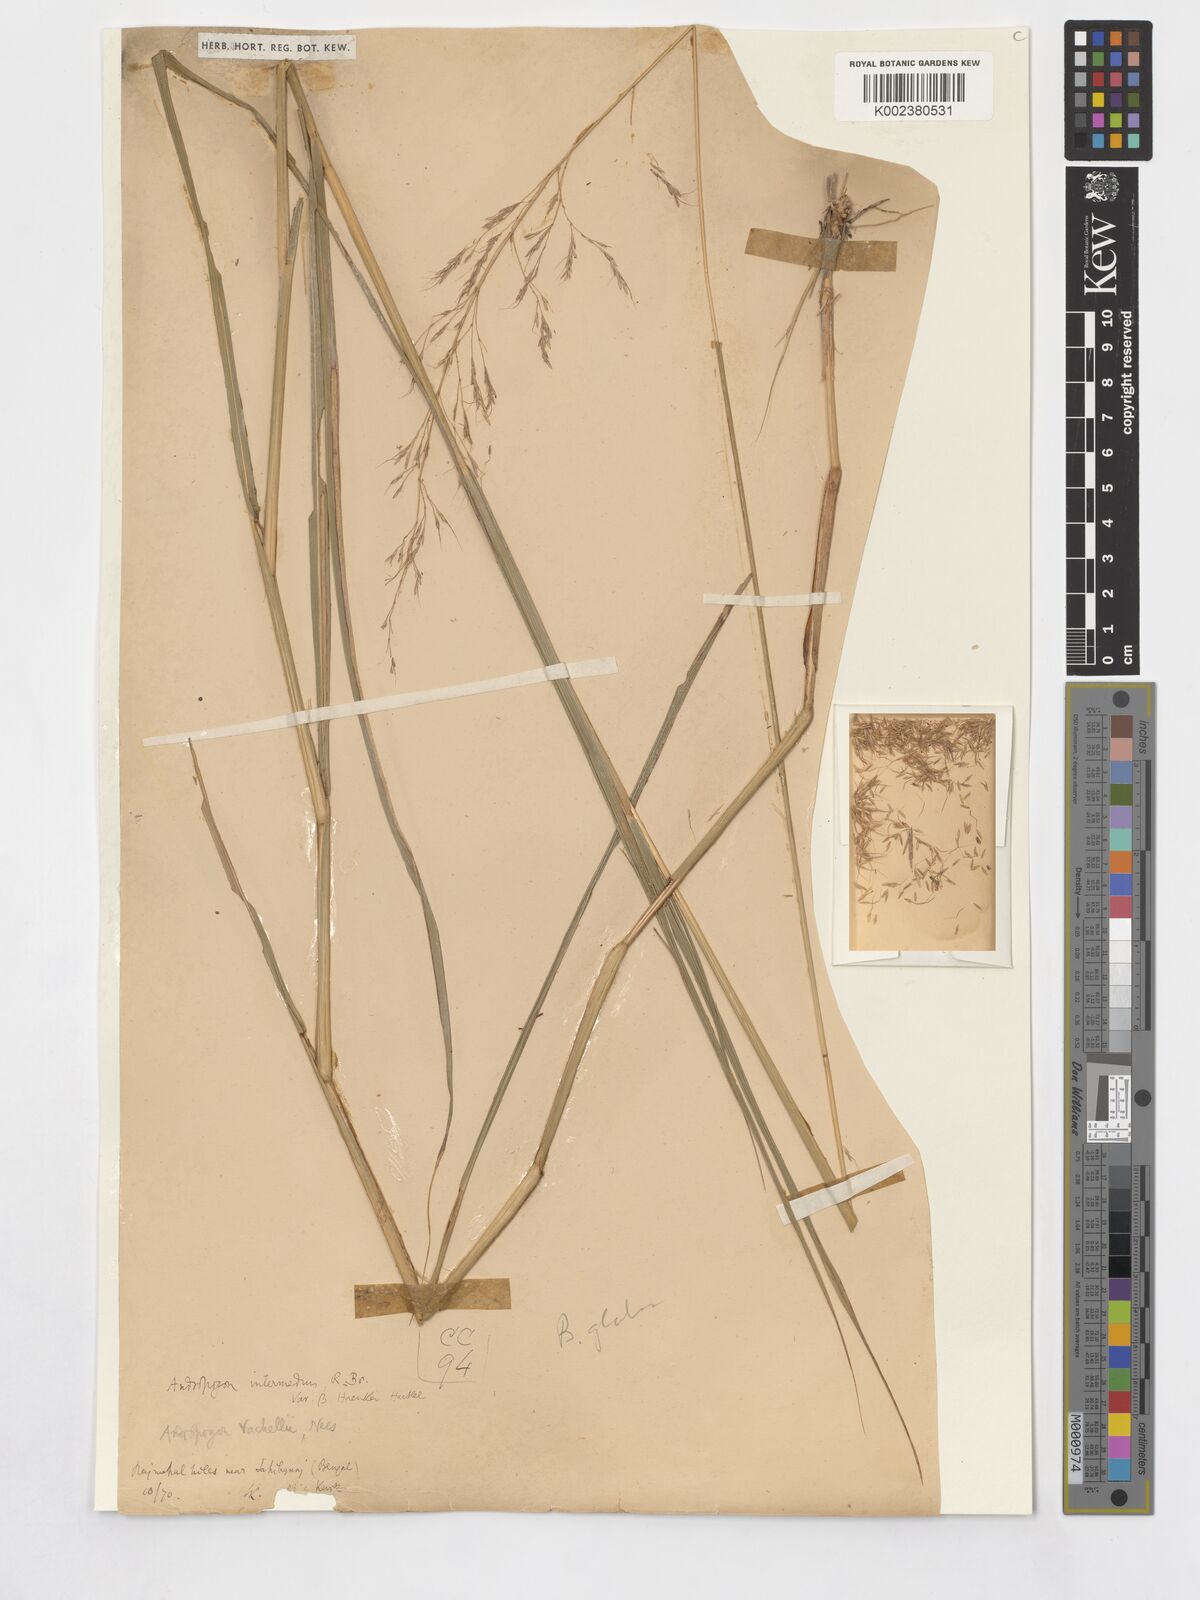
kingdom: Plantae
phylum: Tracheophyta
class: Liliopsida
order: Poales
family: Poaceae
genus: Bothriochloa
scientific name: Bothriochloa glabra
